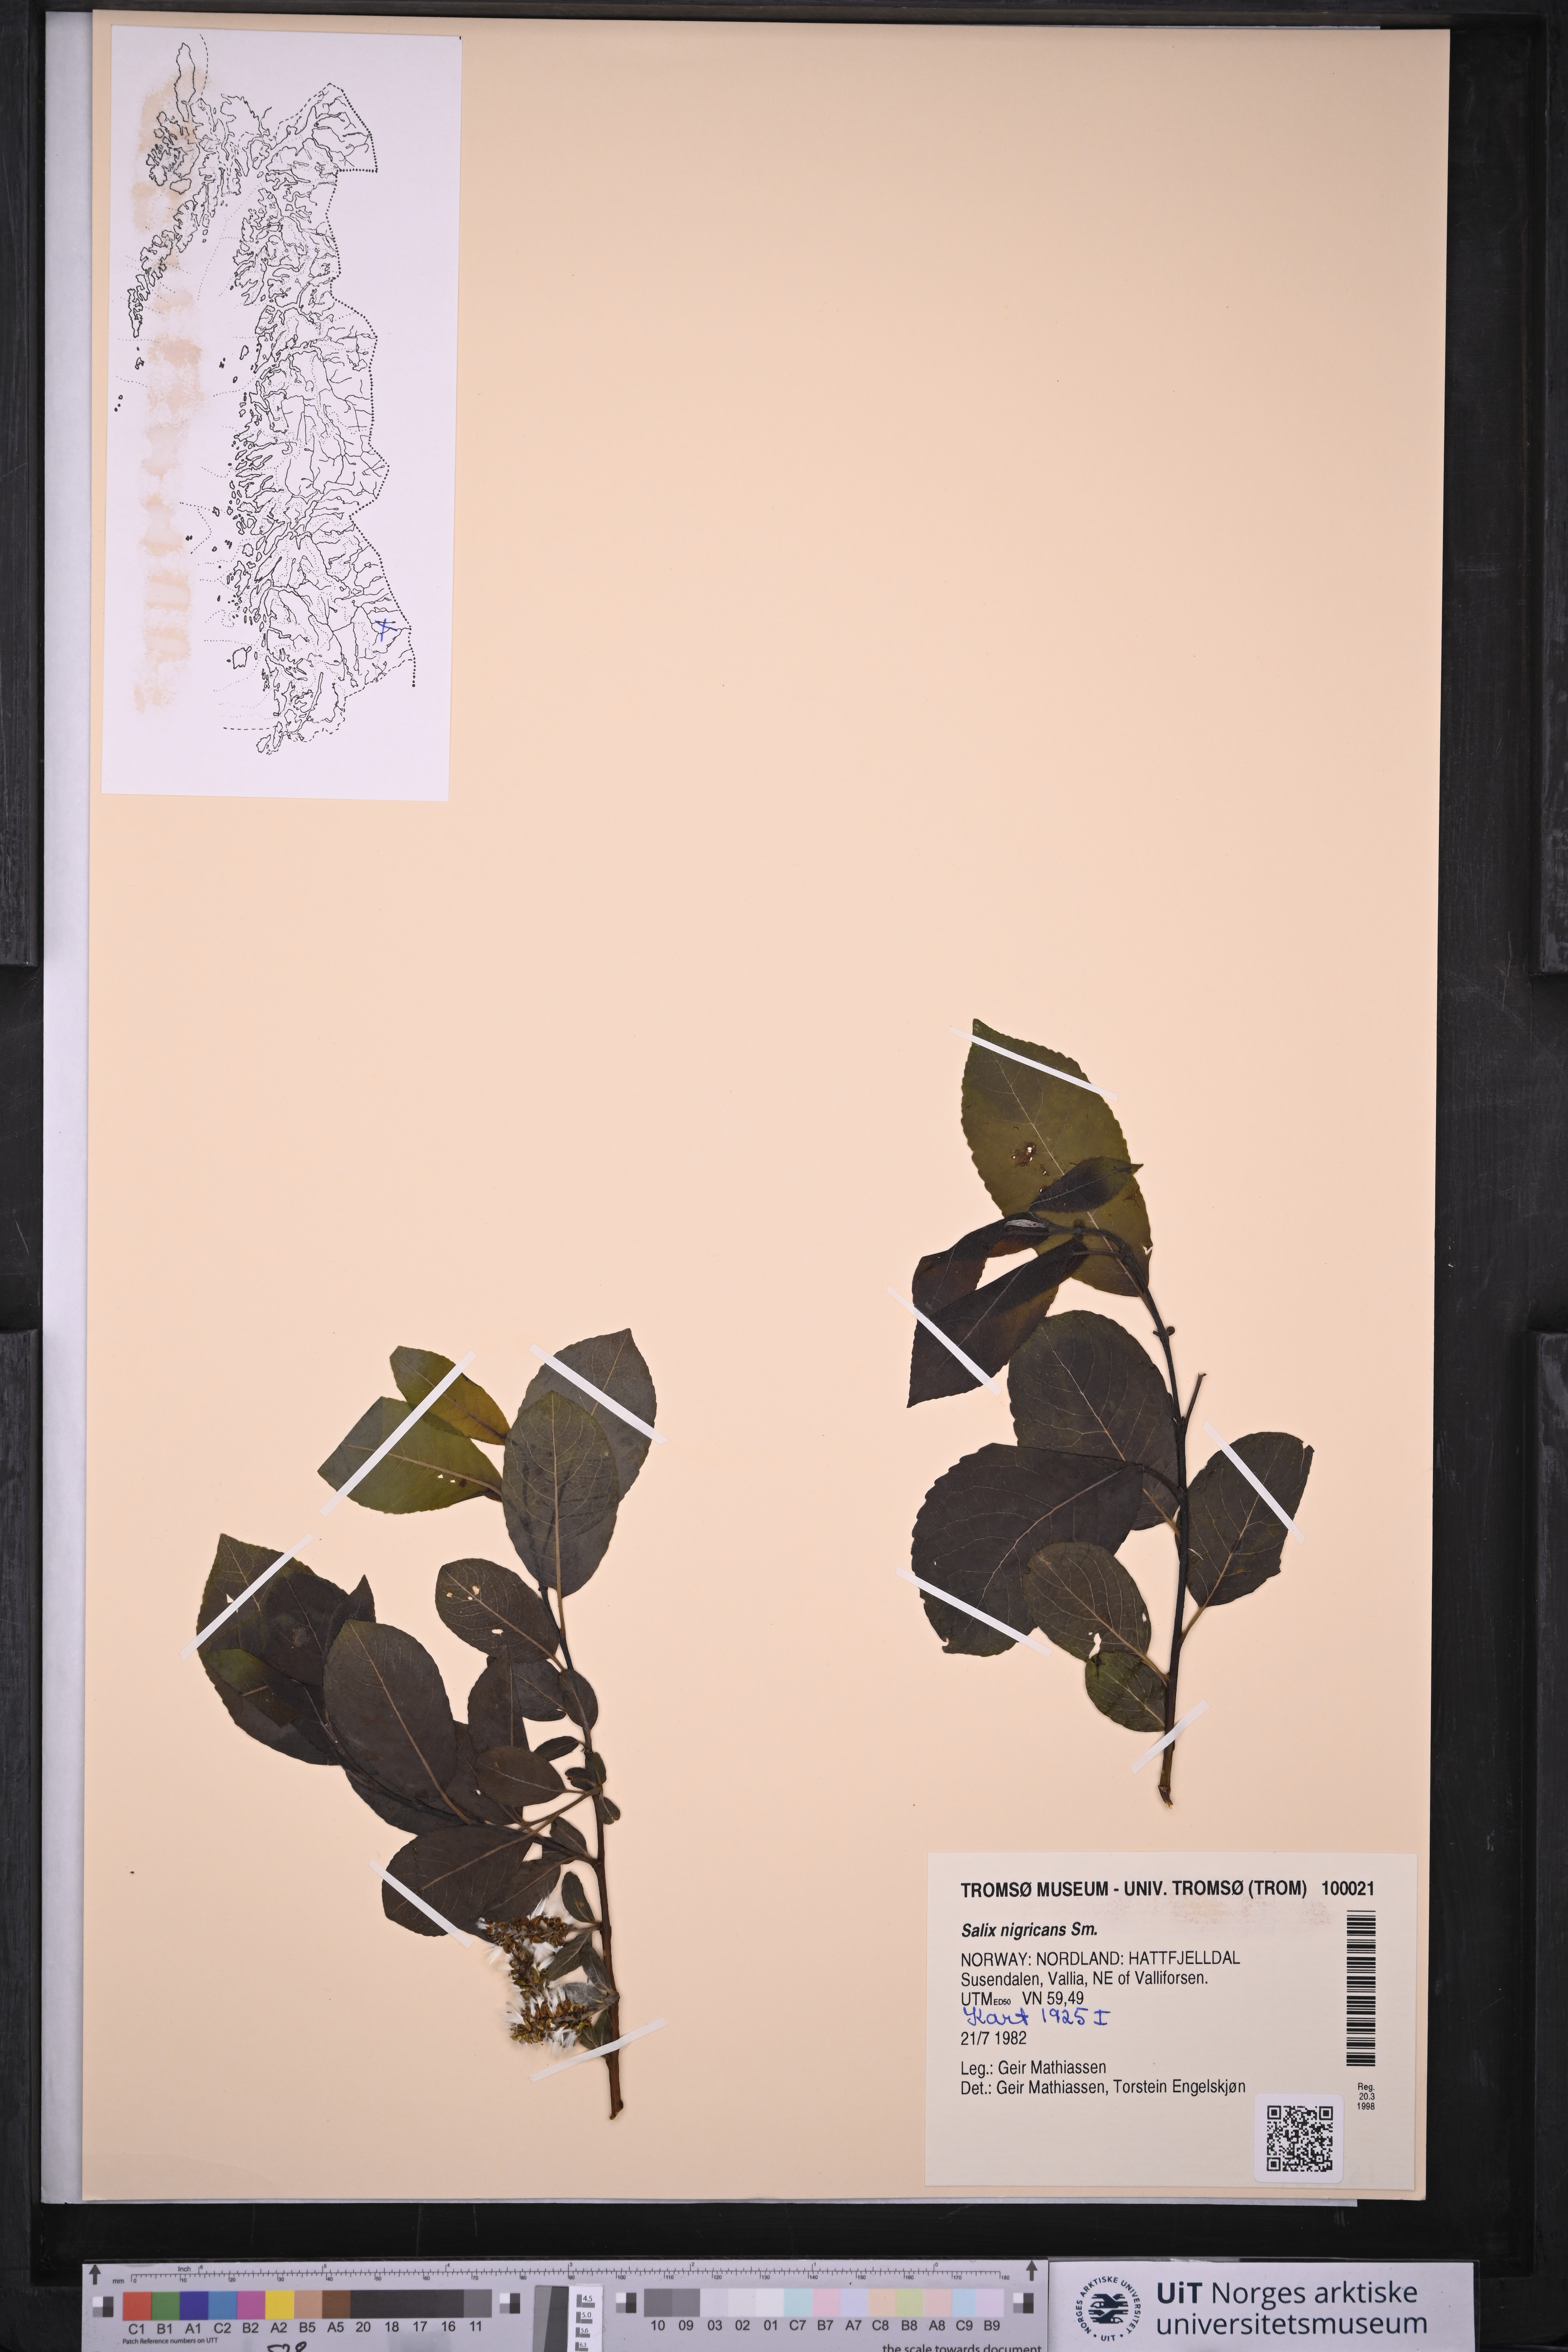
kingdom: Plantae
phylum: Tracheophyta
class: Magnoliopsida
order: Malpighiales
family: Salicaceae
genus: Salix
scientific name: Salix myrsinifolia
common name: Dark-leaved willow
